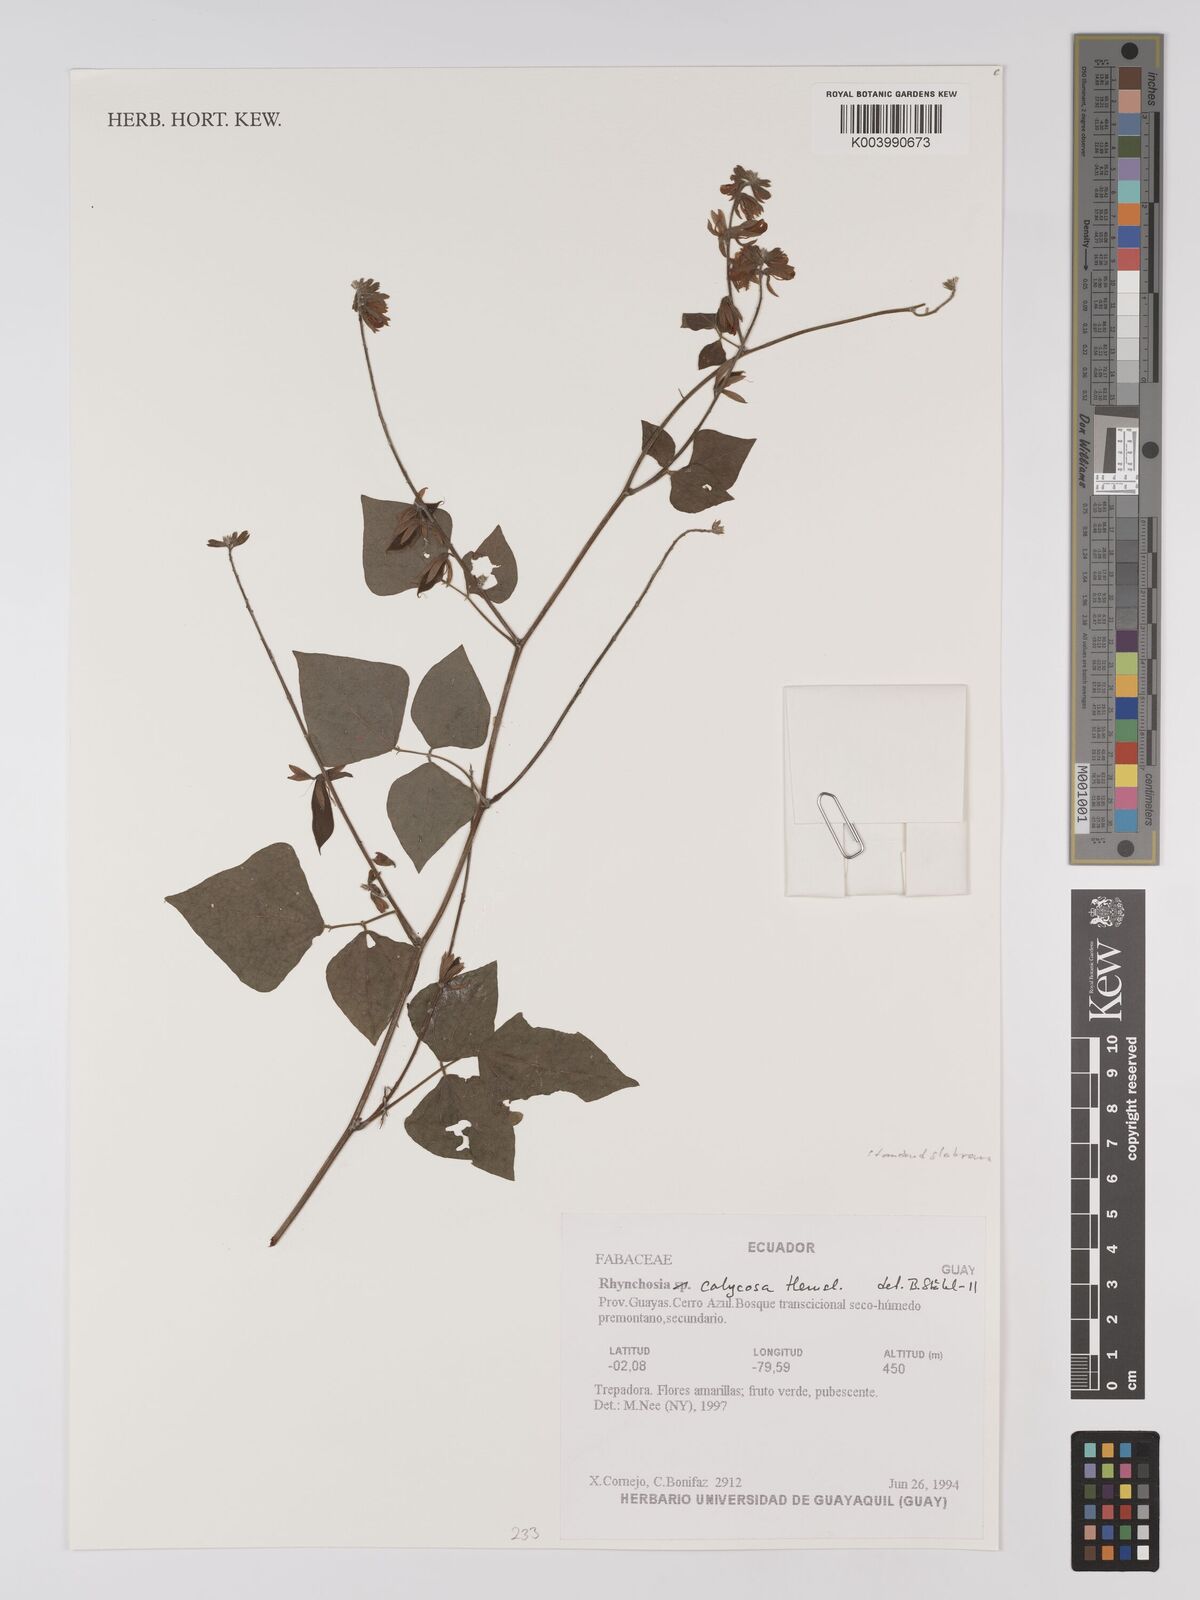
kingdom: Plantae
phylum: Tracheophyta
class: Magnoliopsida
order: Fabales
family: Fabaceae
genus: Rhynchosia
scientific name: Rhynchosia calycosa
